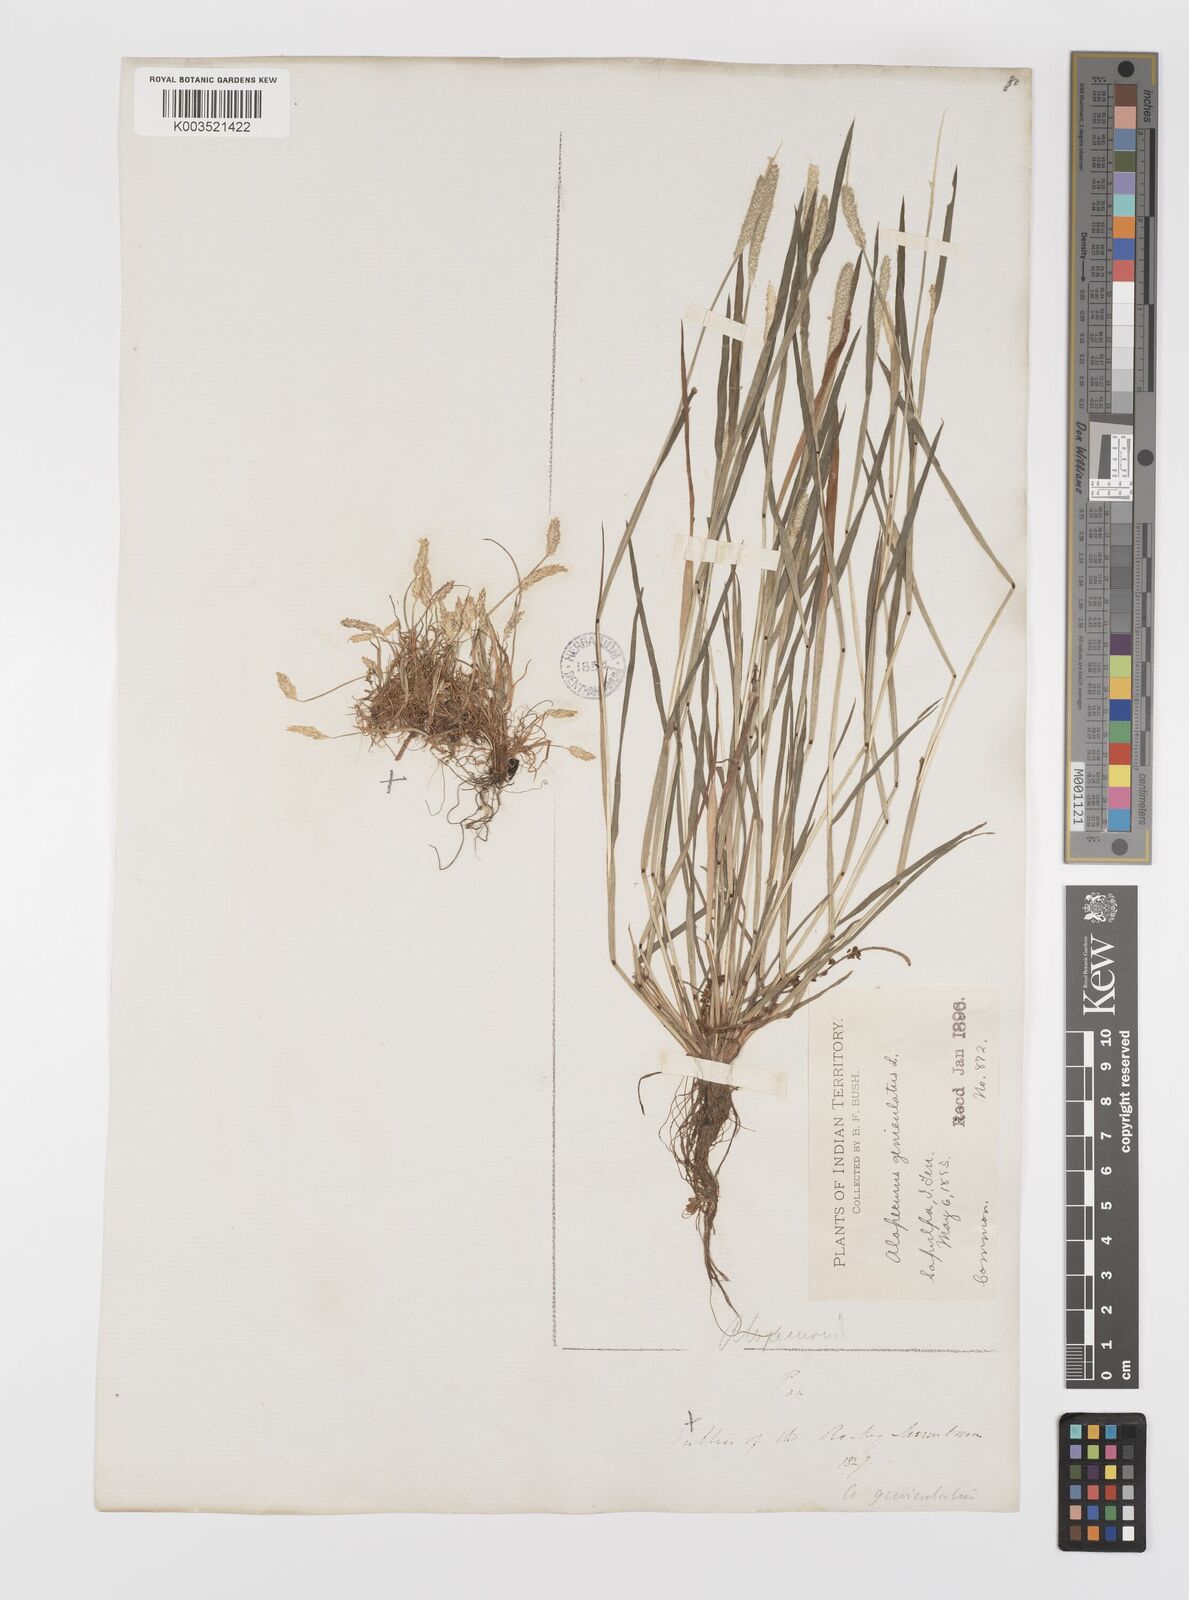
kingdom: Plantae
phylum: Tracheophyta
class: Liliopsida
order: Poales
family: Poaceae
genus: Alopecurus
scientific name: Alopecurus carolinianus
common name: Tufted foxtail
